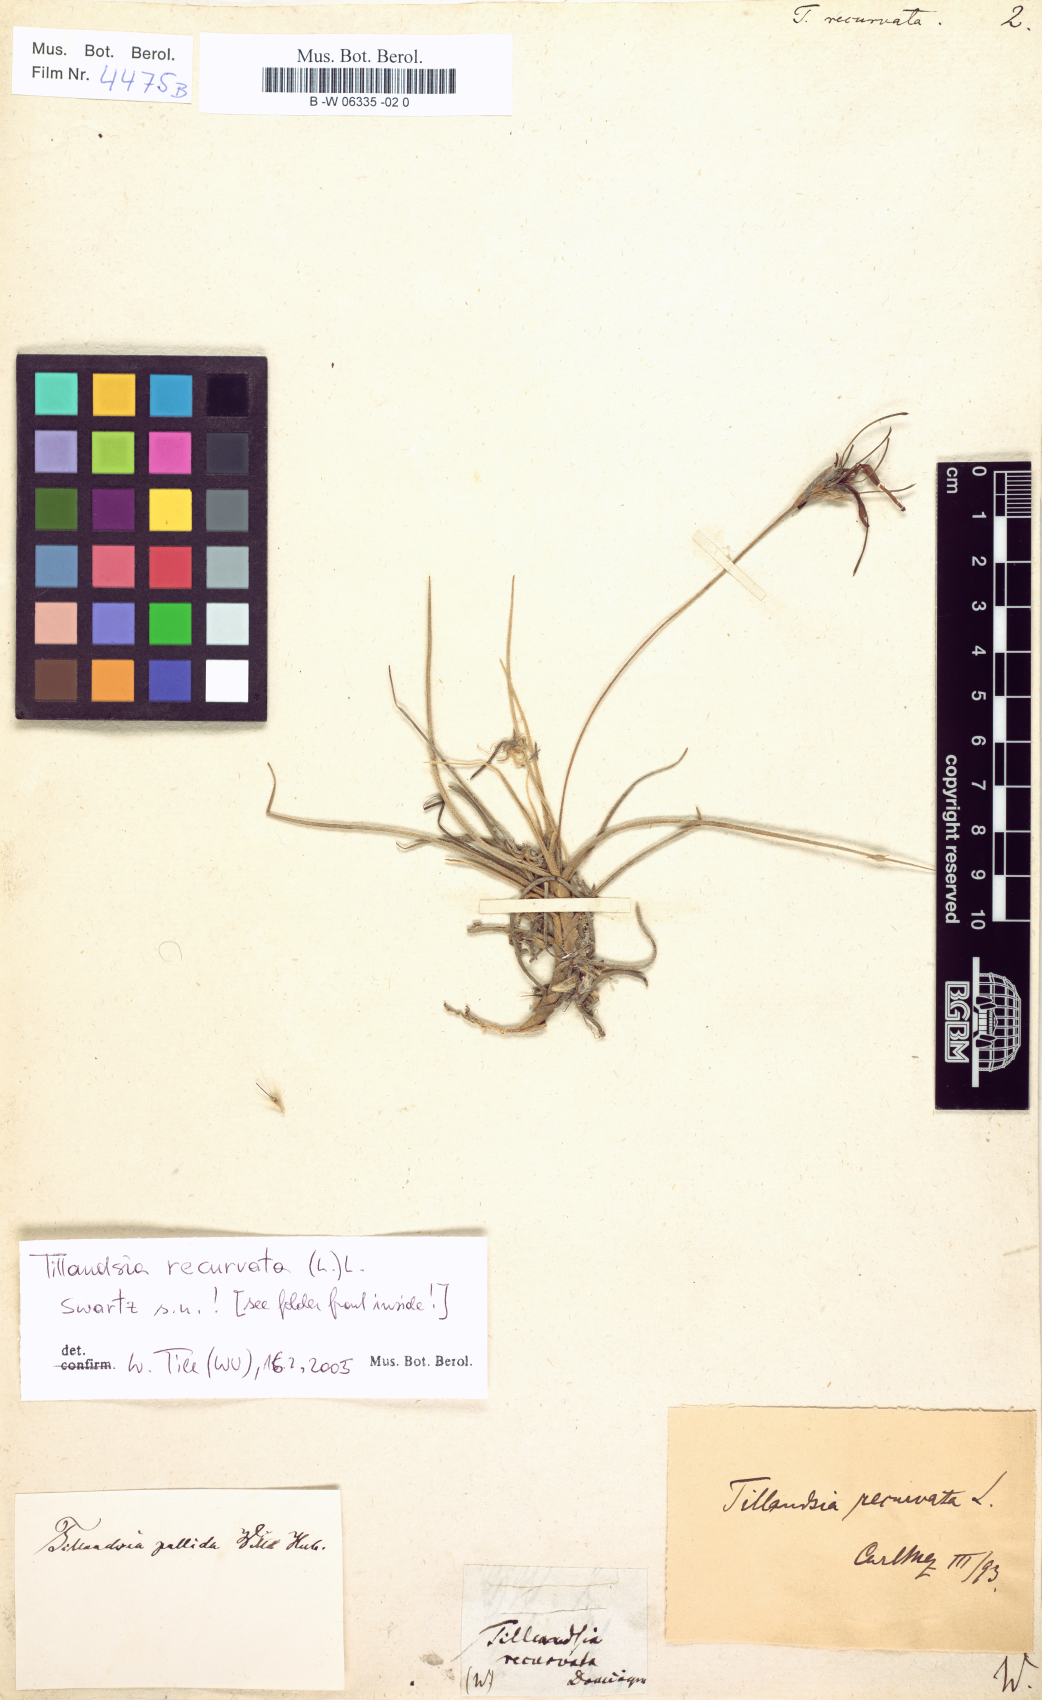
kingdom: Plantae
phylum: Tracheophyta
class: Liliopsida
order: Poales
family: Bromeliaceae
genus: Tillandsia
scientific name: Tillandsia recurvata
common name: Small ballmoss
